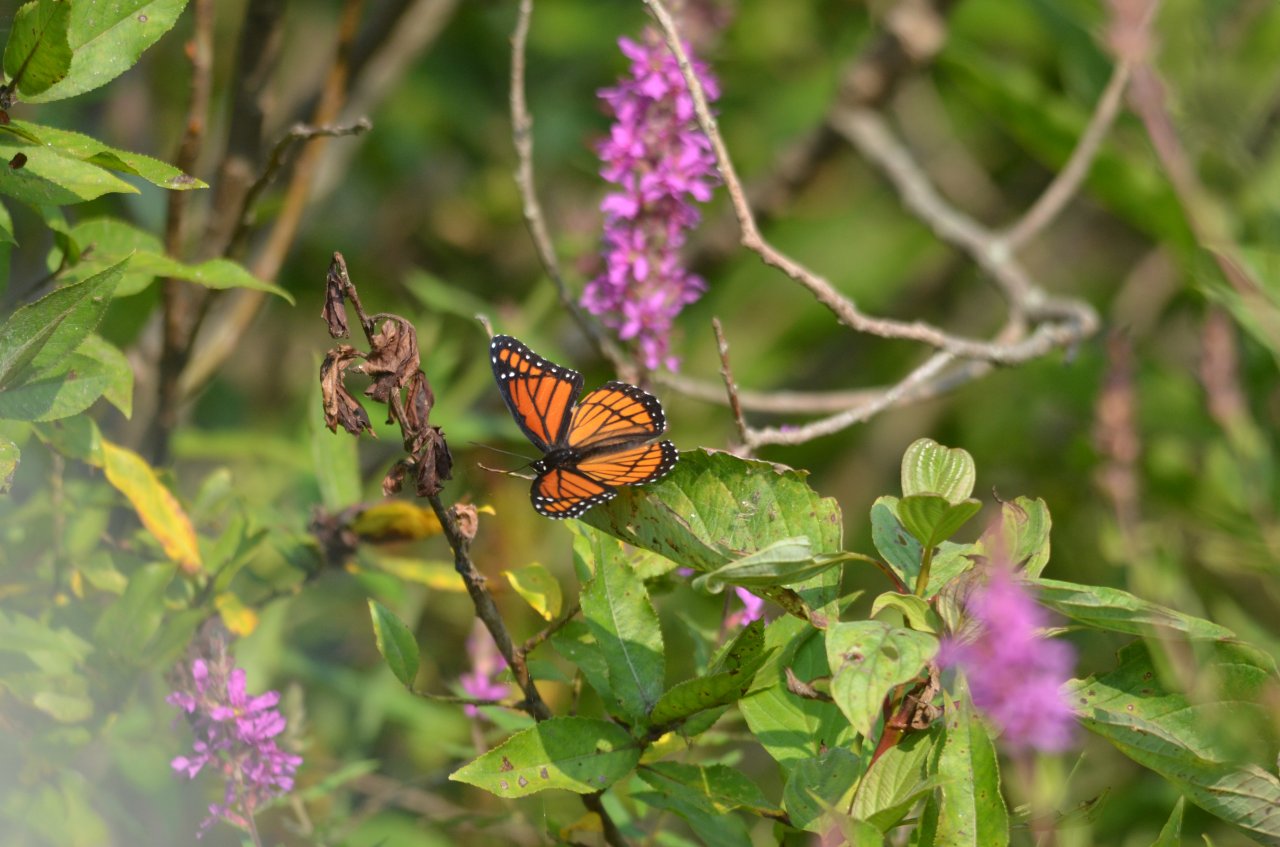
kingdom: Animalia
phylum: Arthropoda
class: Insecta
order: Lepidoptera
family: Nymphalidae
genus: Limenitis
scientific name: Limenitis archippus
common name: Viceroy
